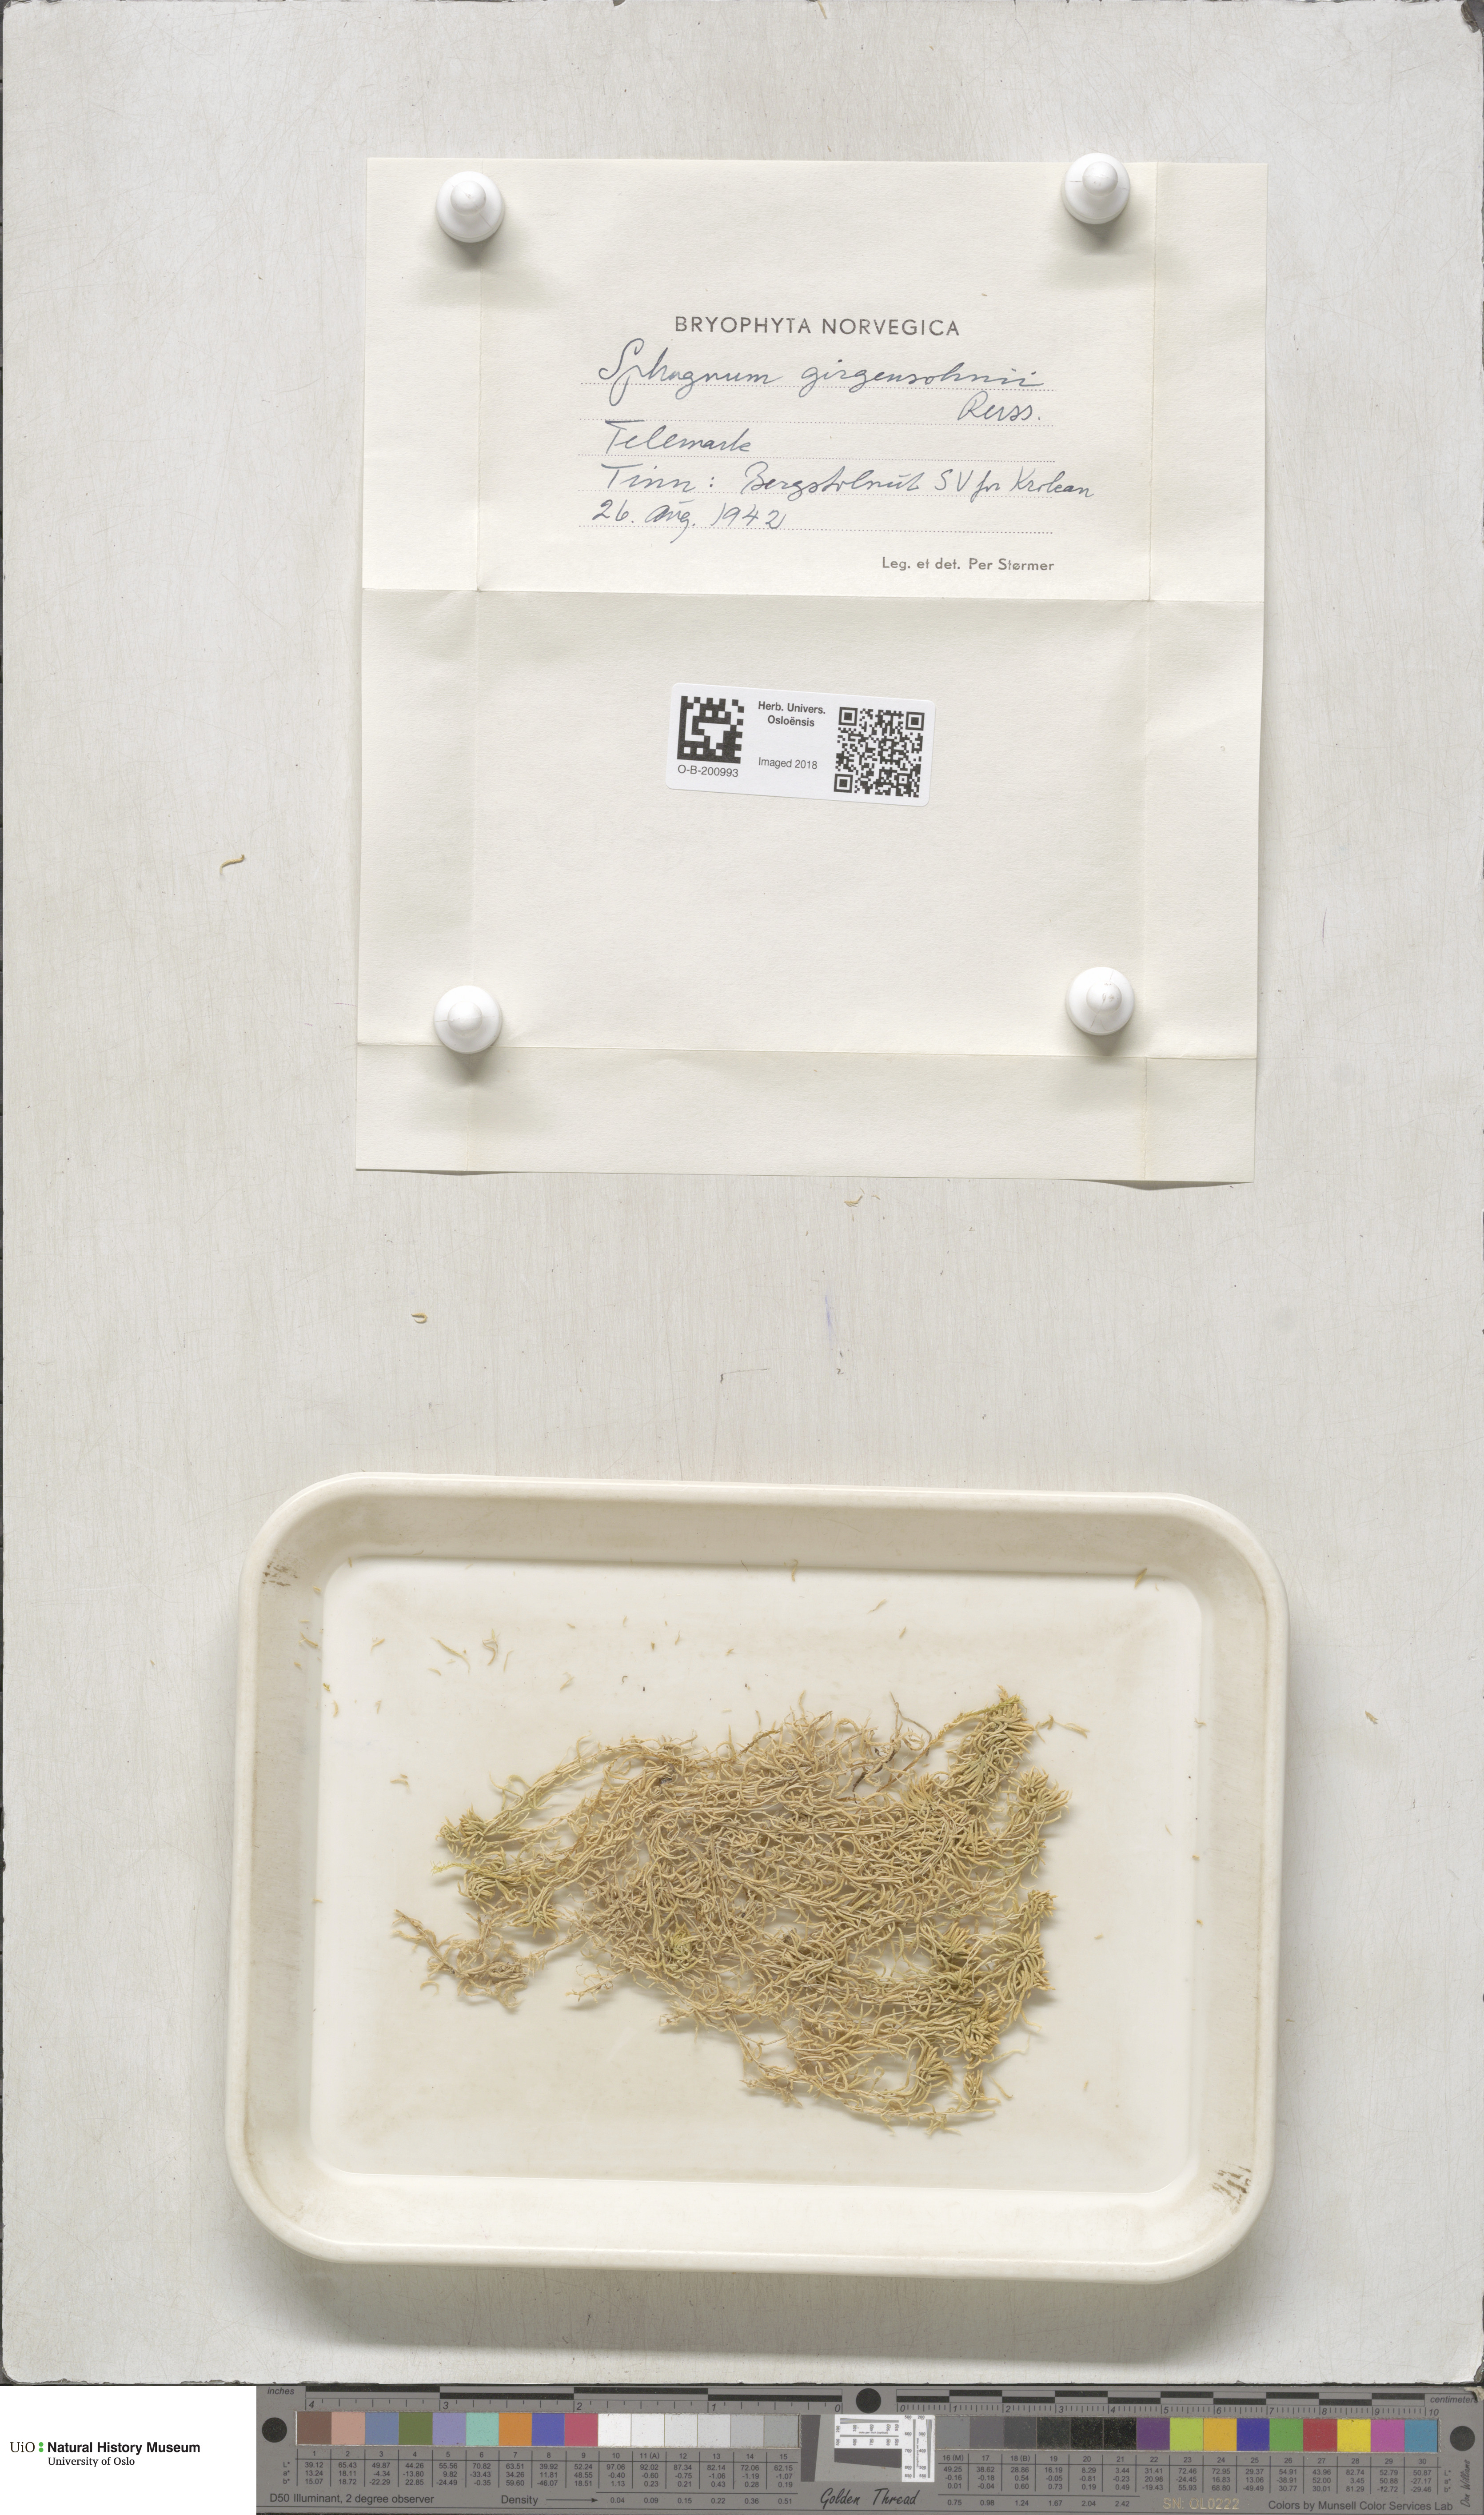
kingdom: Plantae
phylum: Bryophyta
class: Sphagnopsida
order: Sphagnales
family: Sphagnaceae
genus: Sphagnum
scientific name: Sphagnum girgensohnii
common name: Girgensohn's peat moss
